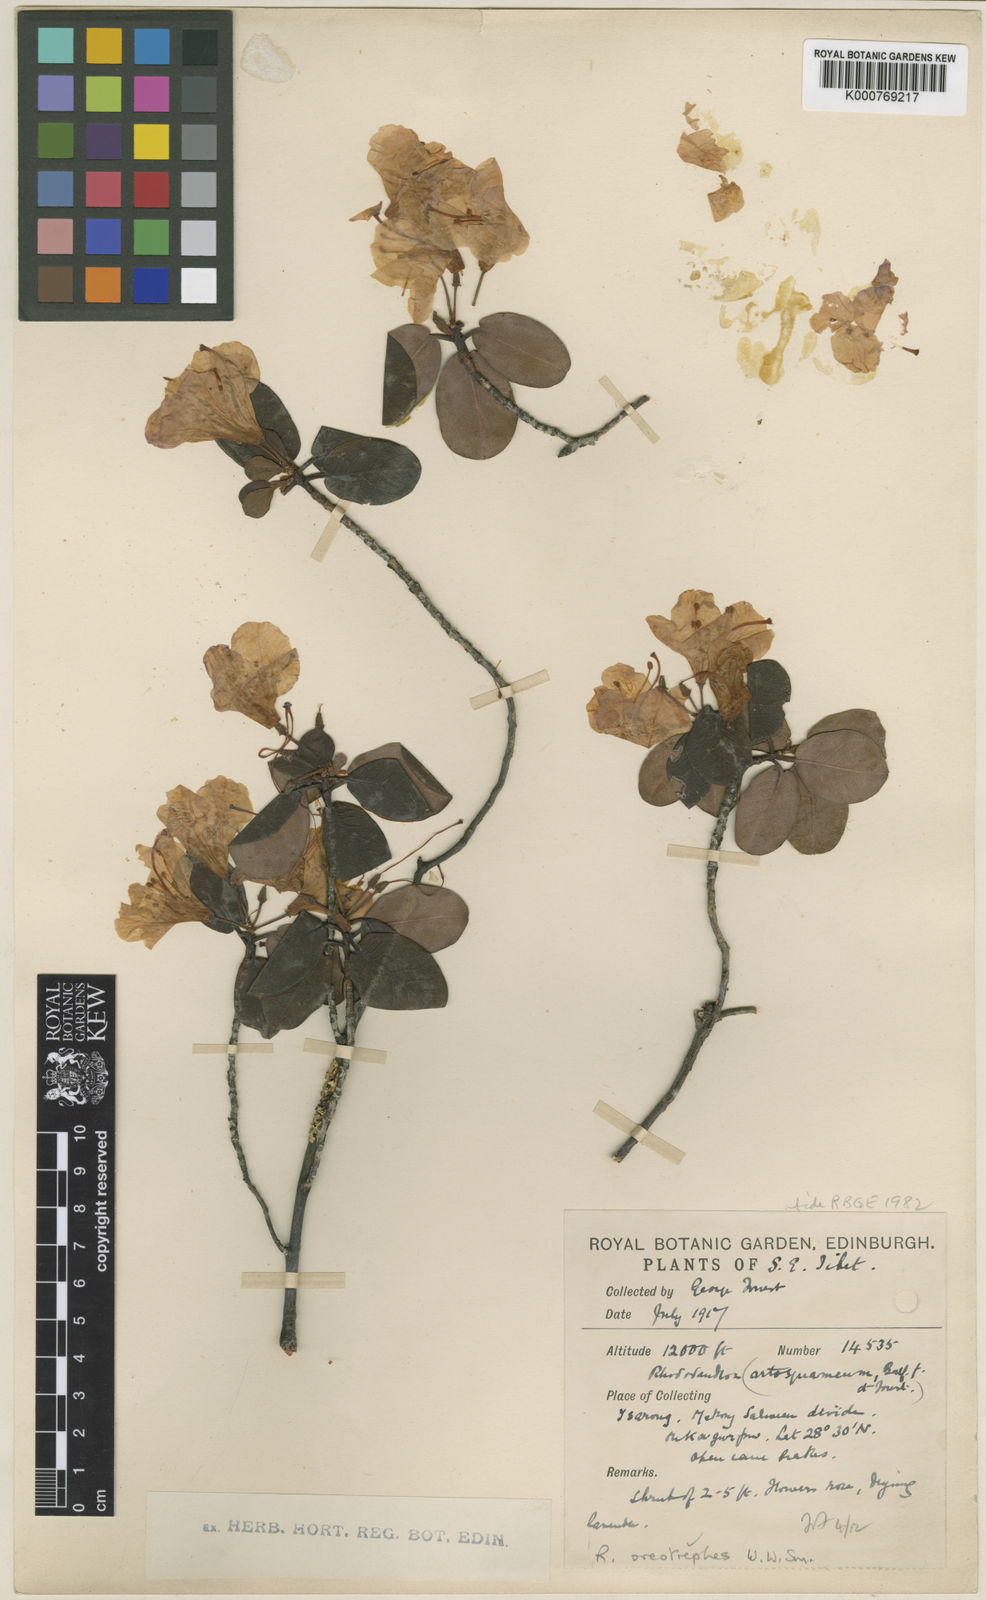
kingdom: Plantae
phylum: Tracheophyta
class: Magnoliopsida
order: Ericales
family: Ericaceae
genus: Rhododendron
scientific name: Rhododendron oreotrephes
